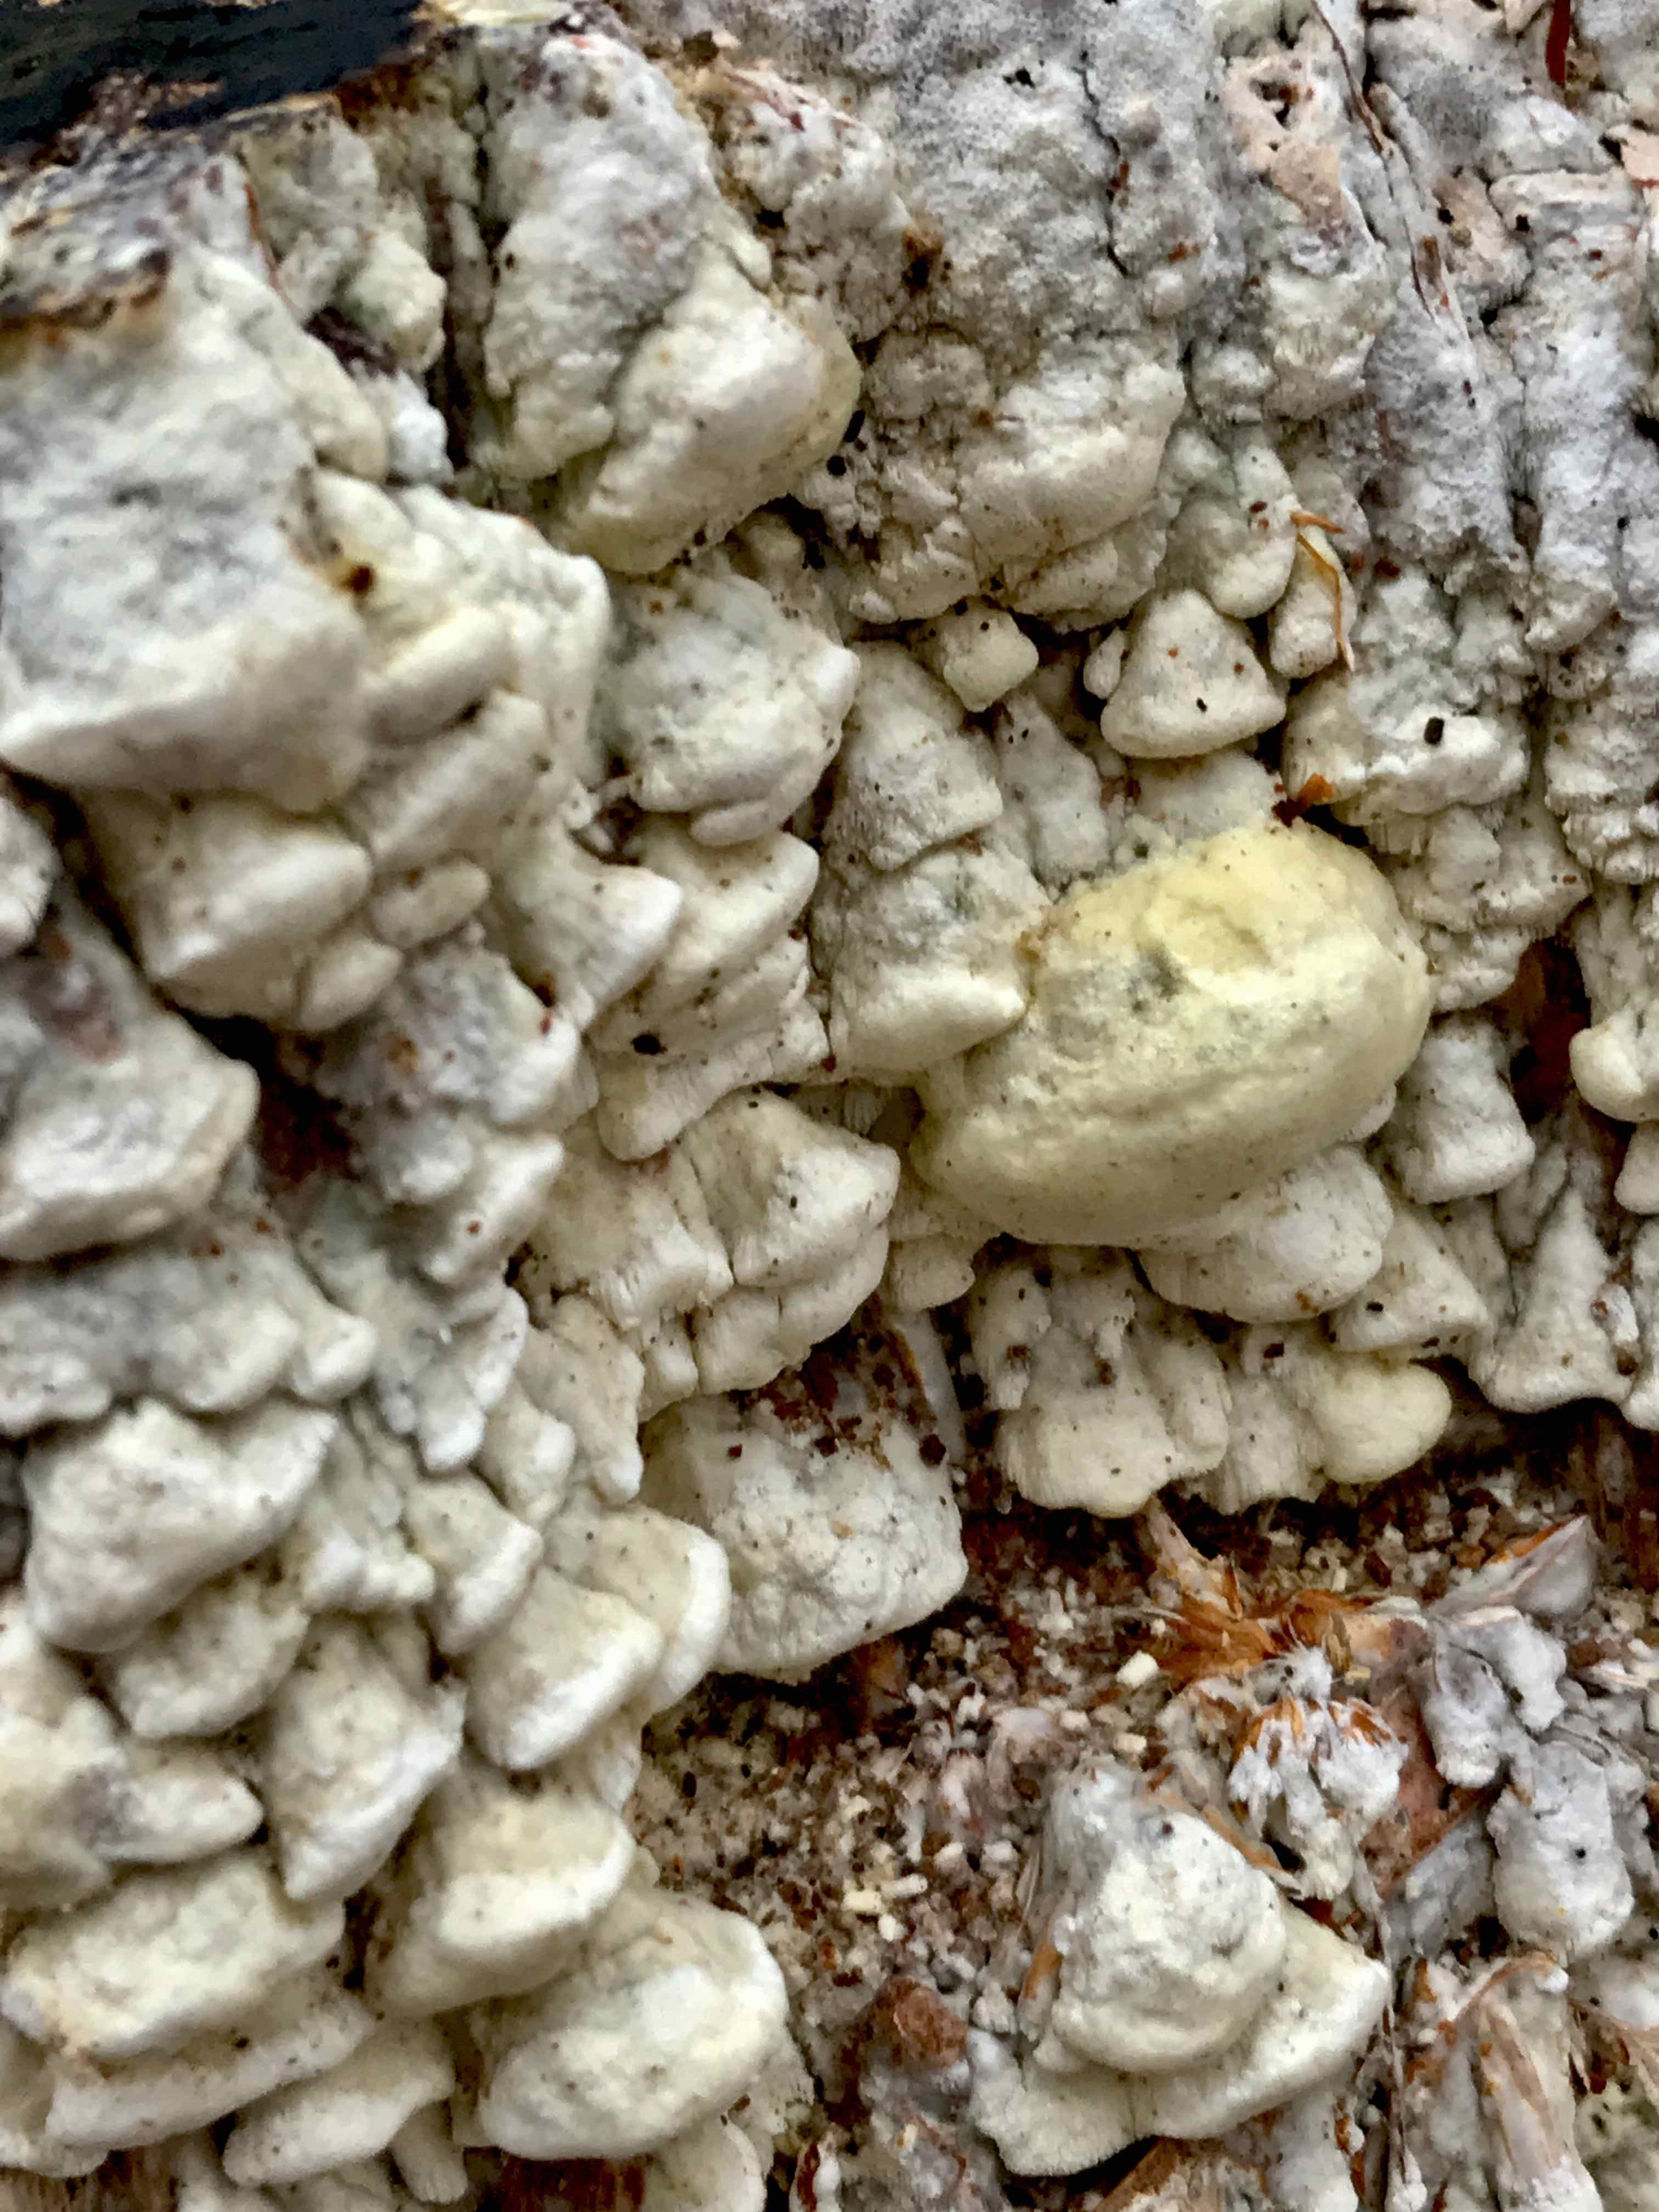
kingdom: Fungi
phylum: Basidiomycota
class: Agaricomycetes
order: Polyporales
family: Fomitopsidaceae
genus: Daedalea
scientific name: Daedalea xantha
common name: gul sejporesvamp
